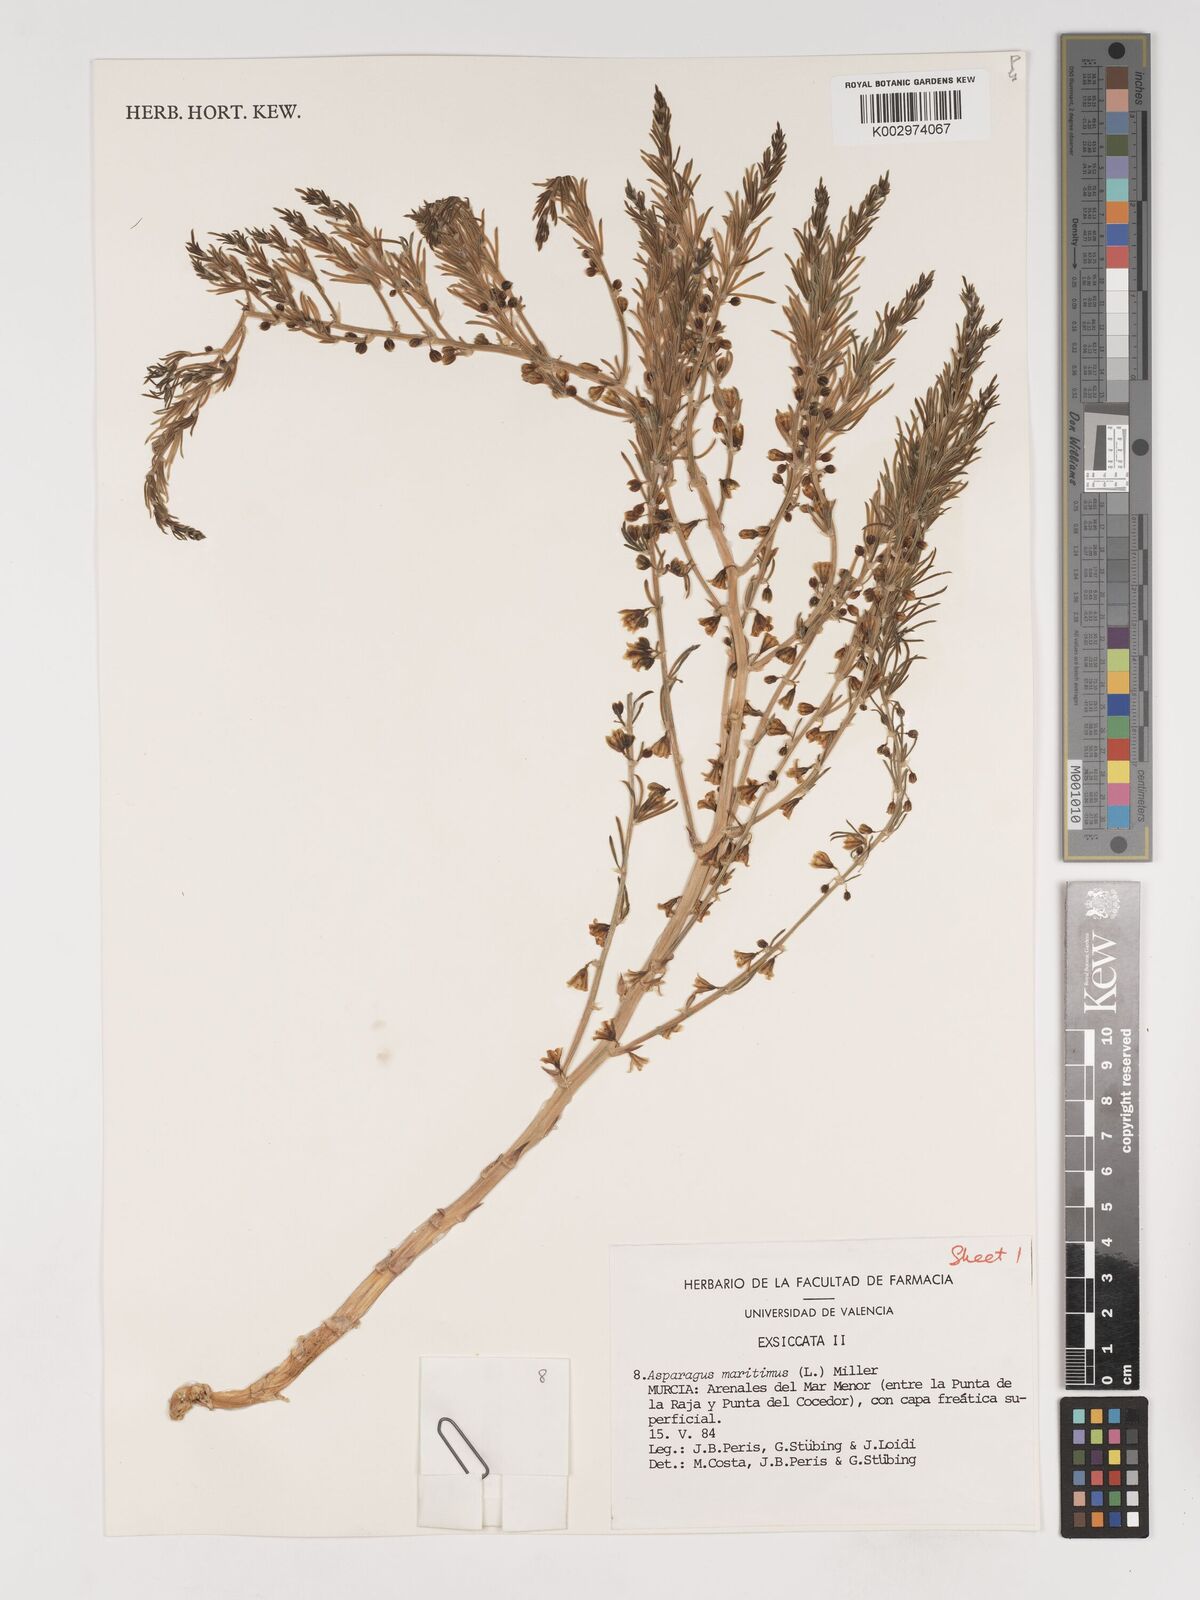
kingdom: Plantae
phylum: Tracheophyta
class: Liliopsida
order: Asparagales
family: Asparagaceae
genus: Asparagus
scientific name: Asparagus officinalis
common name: Garden asparagus
